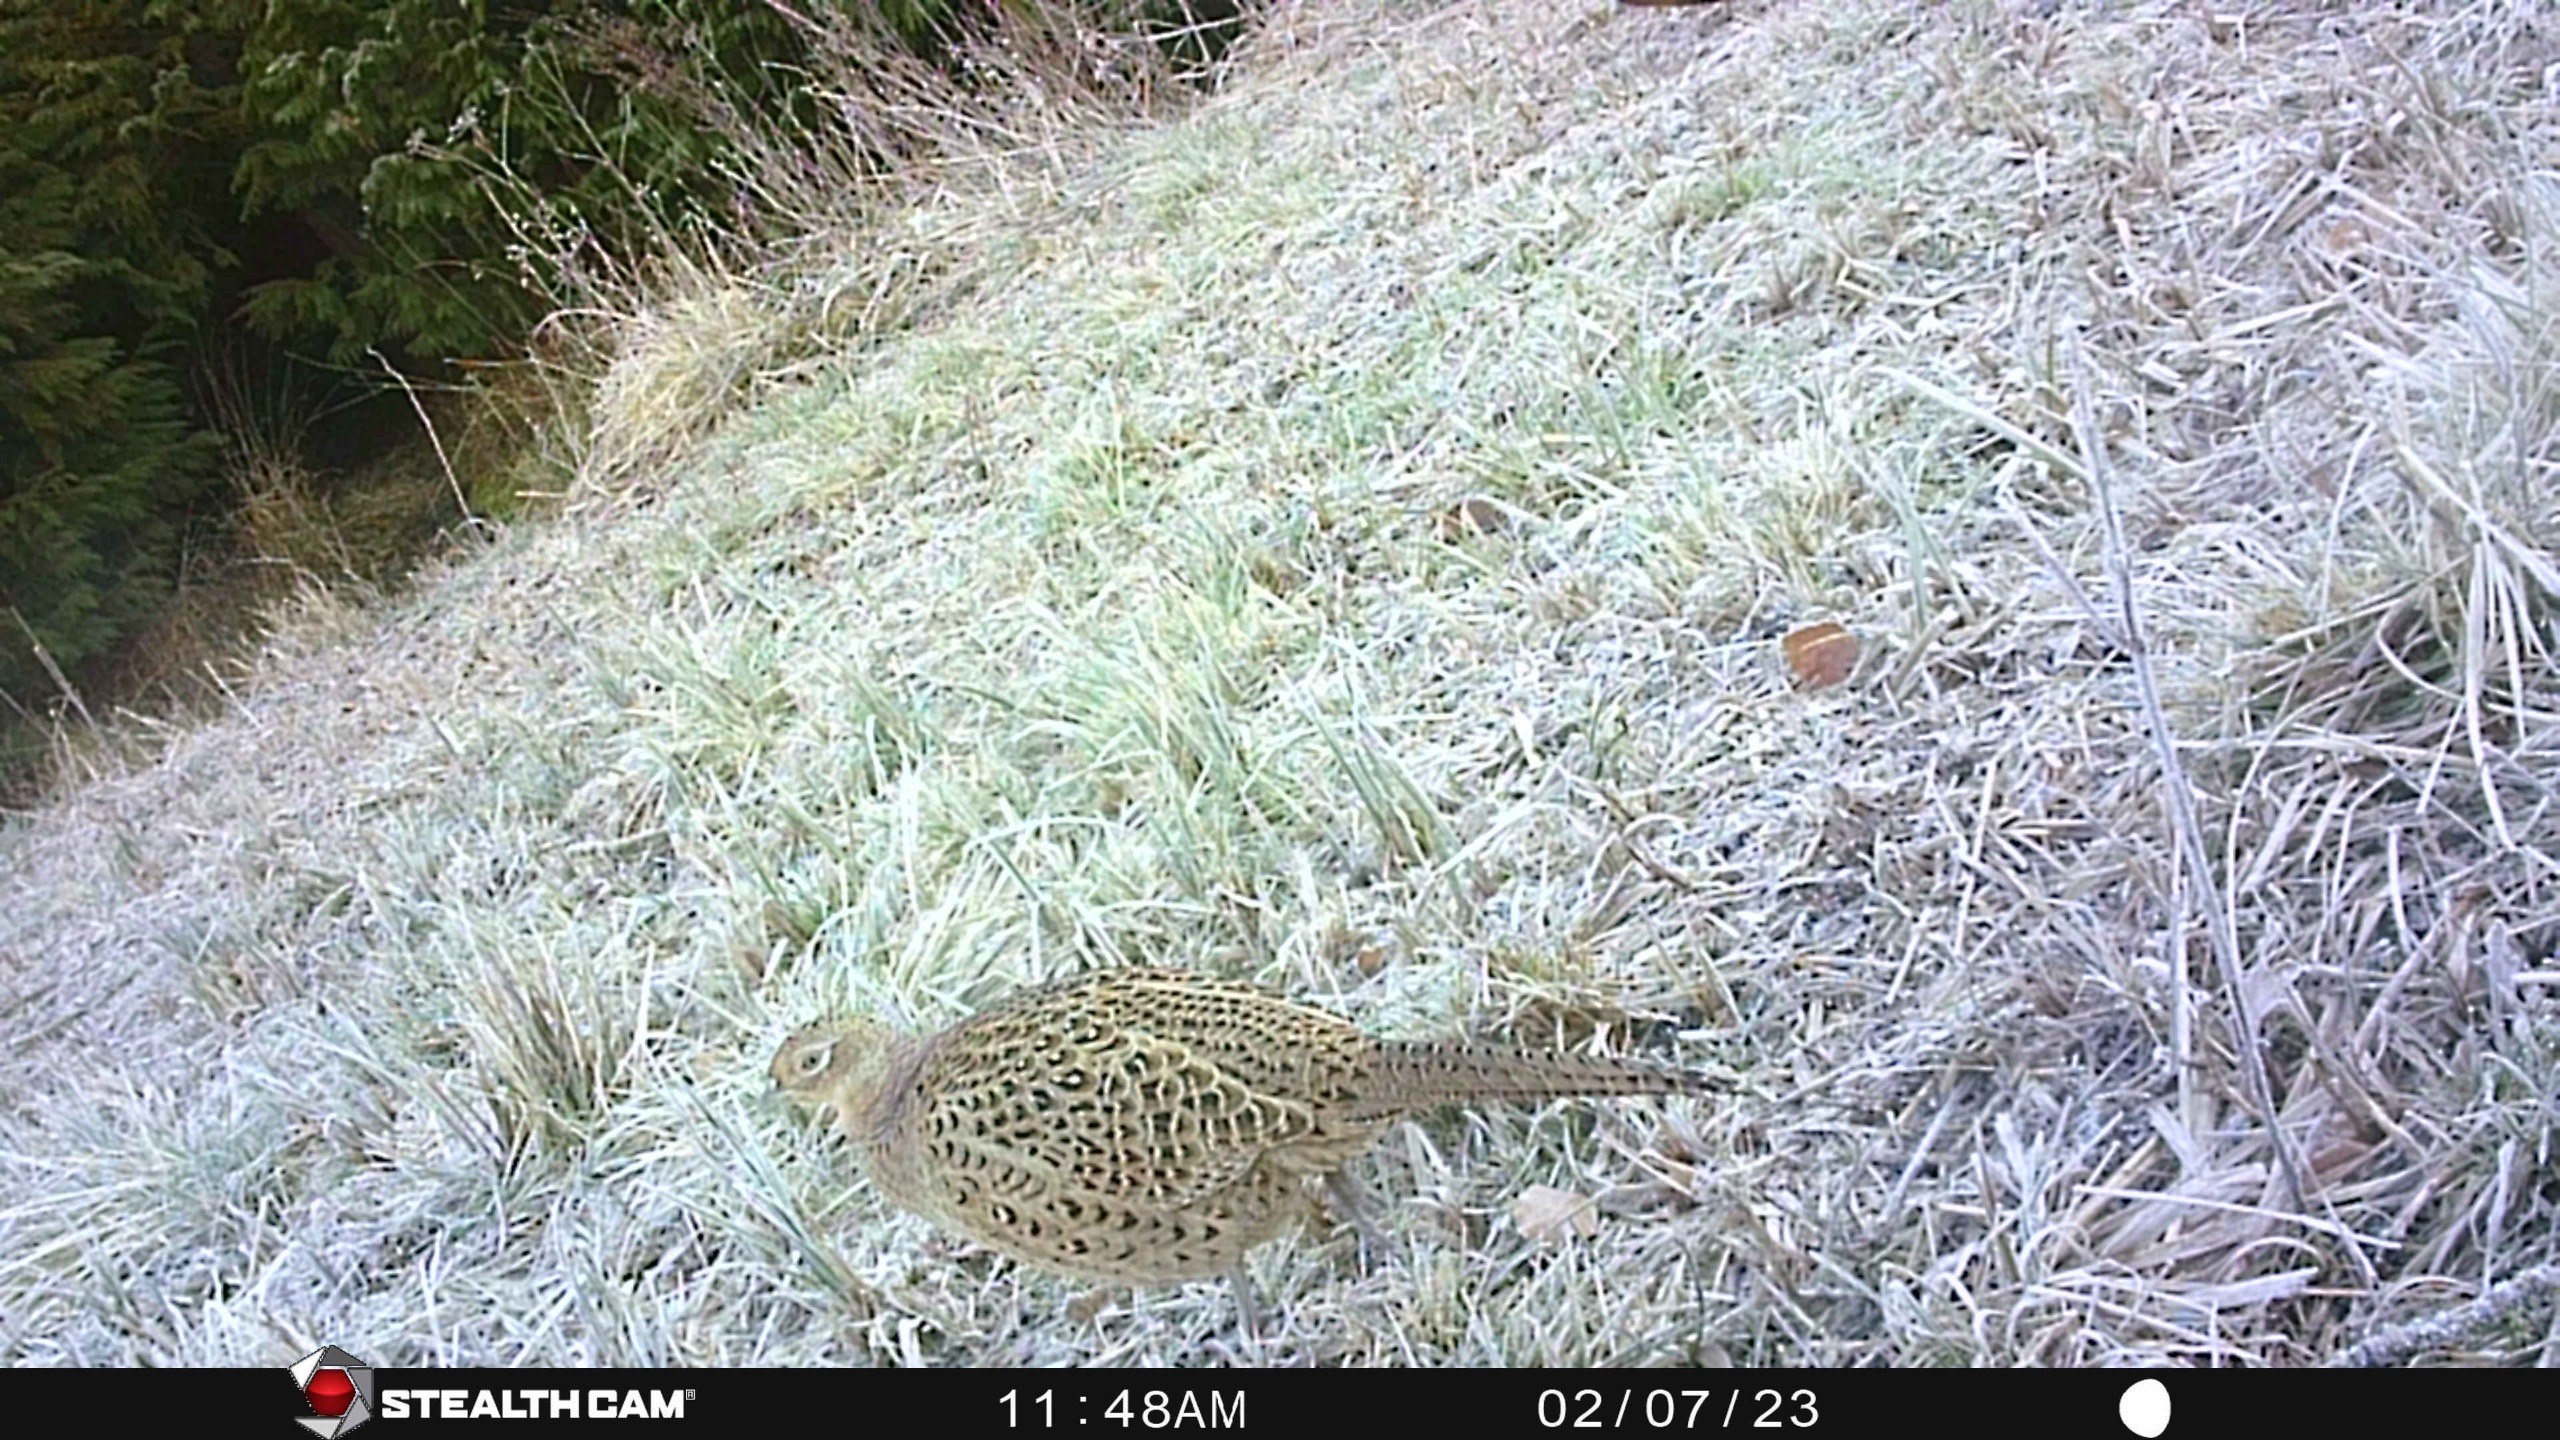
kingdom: Animalia
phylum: Chordata
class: Aves
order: Galliformes
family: Phasianidae
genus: Phasianus
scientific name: Phasianus colchicus
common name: Fasan
